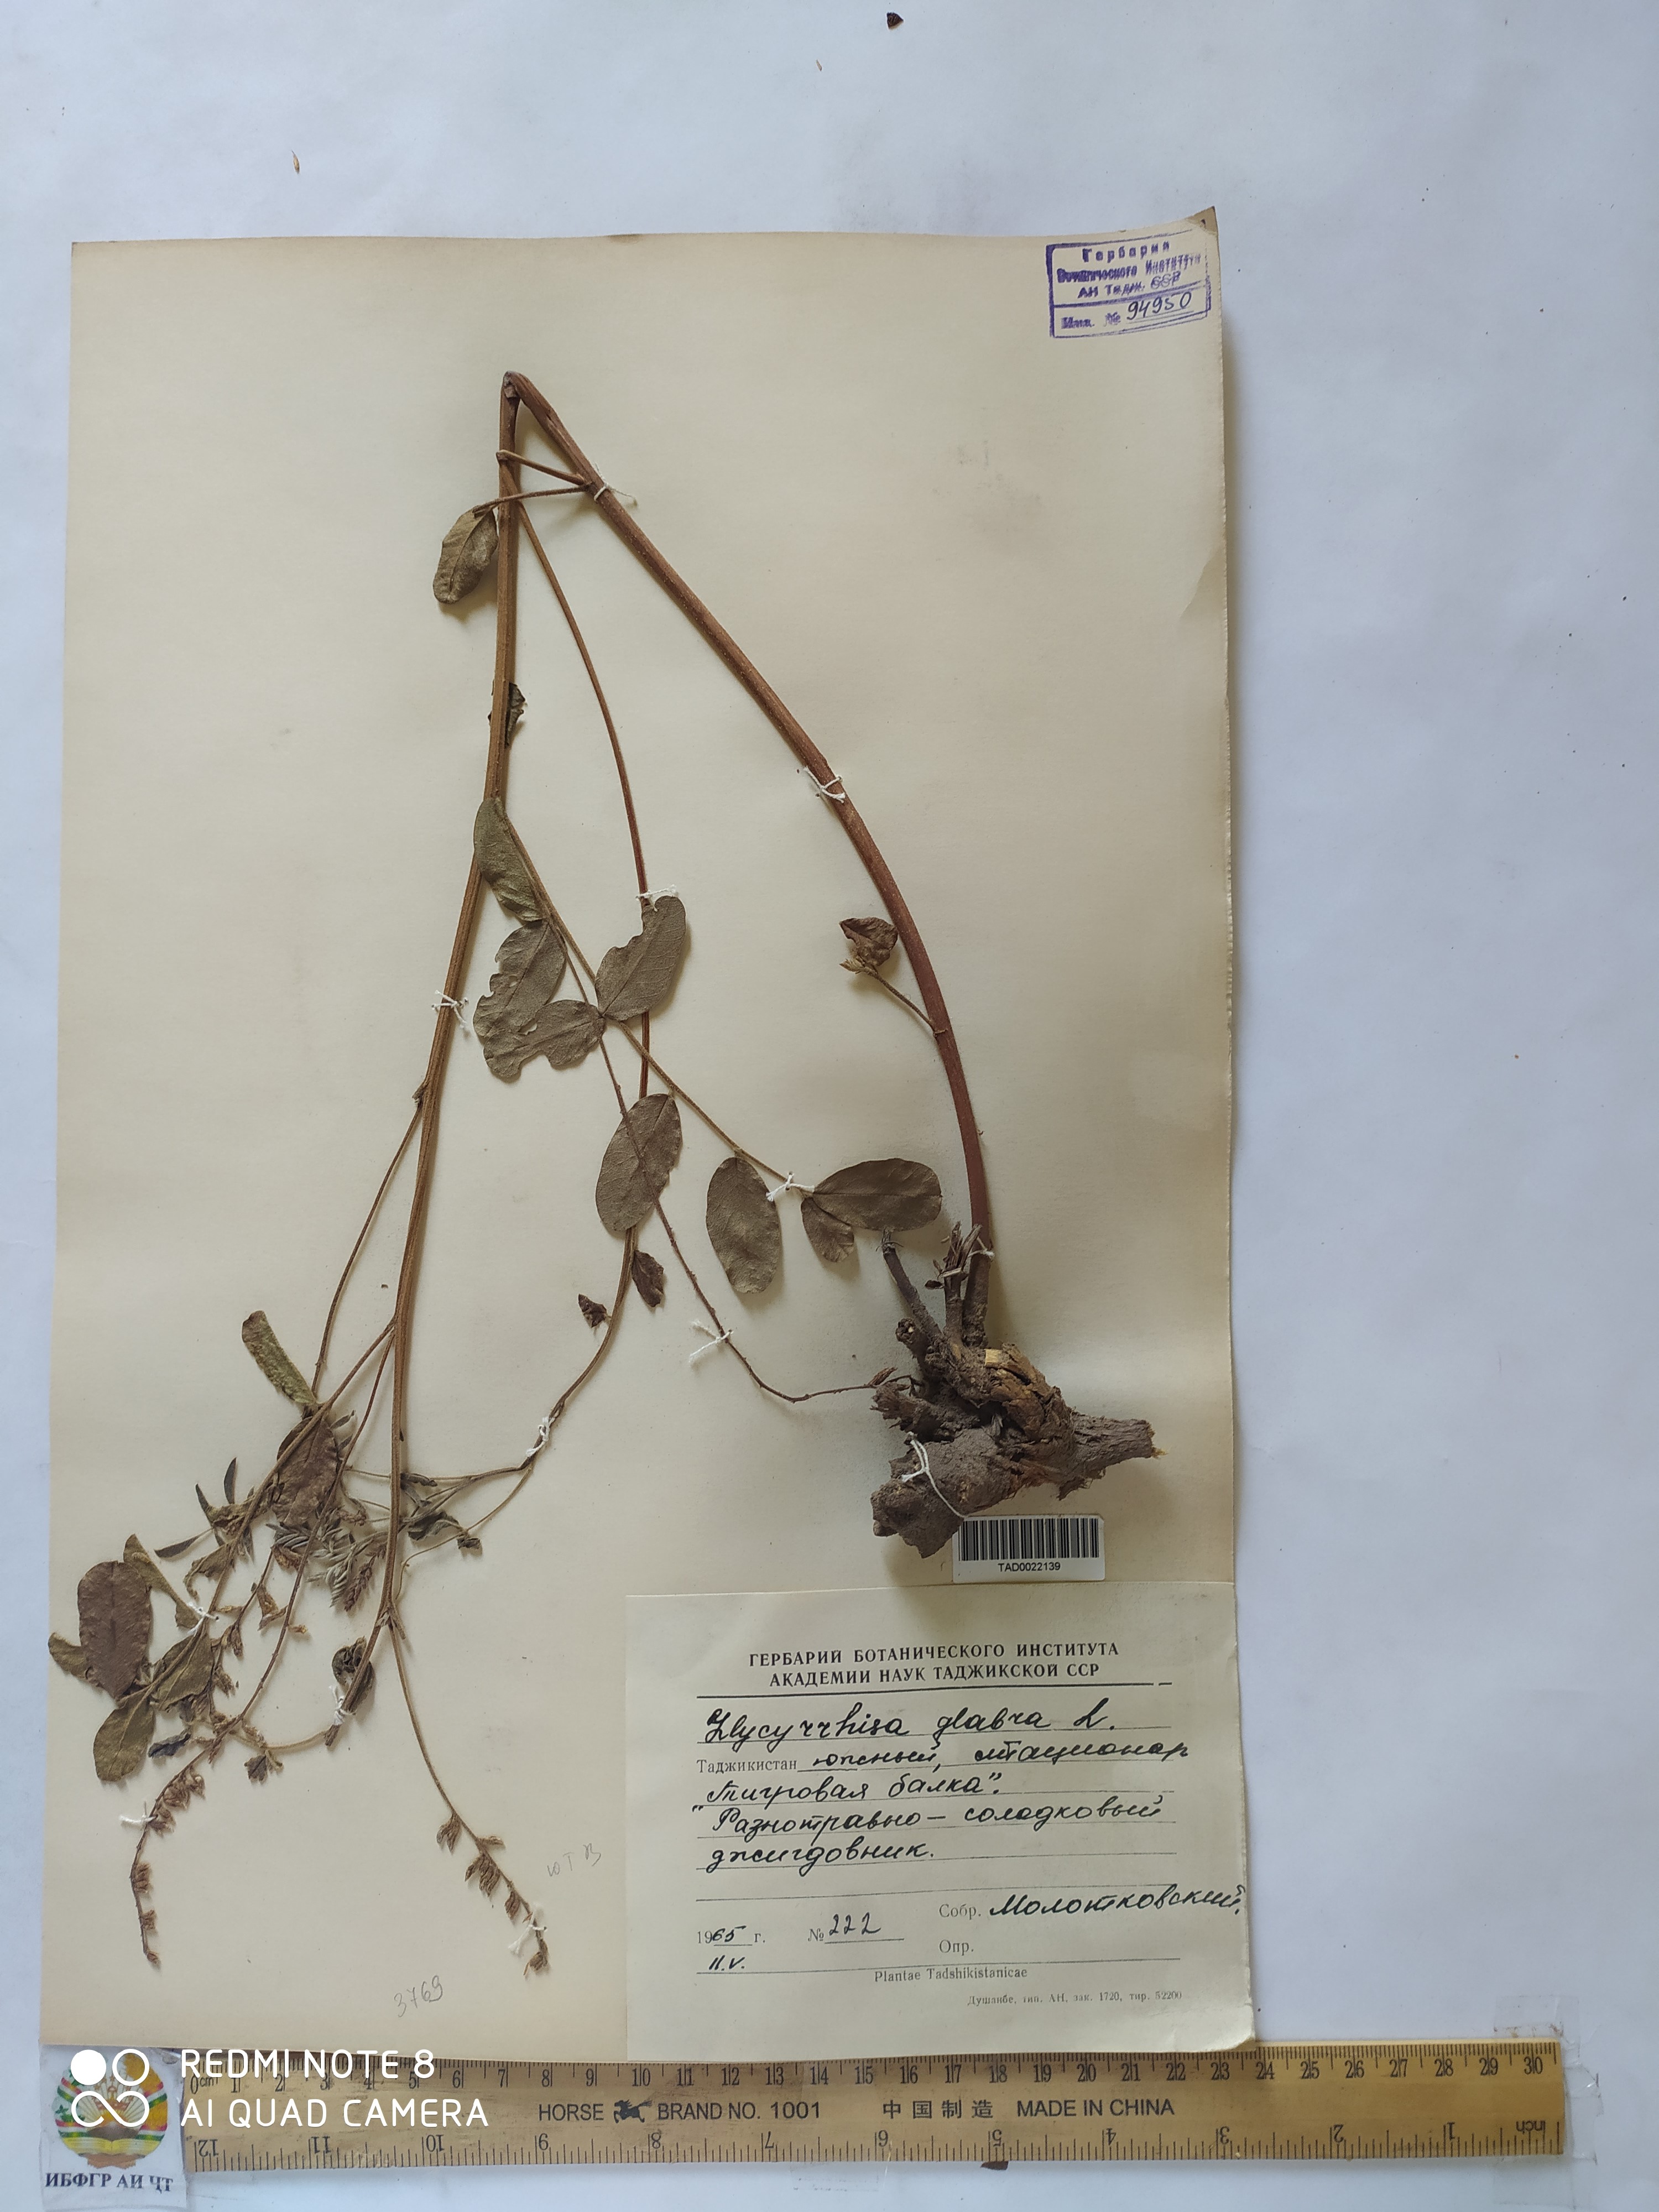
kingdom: Plantae
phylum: Tracheophyta
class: Magnoliopsida
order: Fabales
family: Fabaceae
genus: Glycyrrhiza
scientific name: Glycyrrhiza glabra
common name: Liquorice
